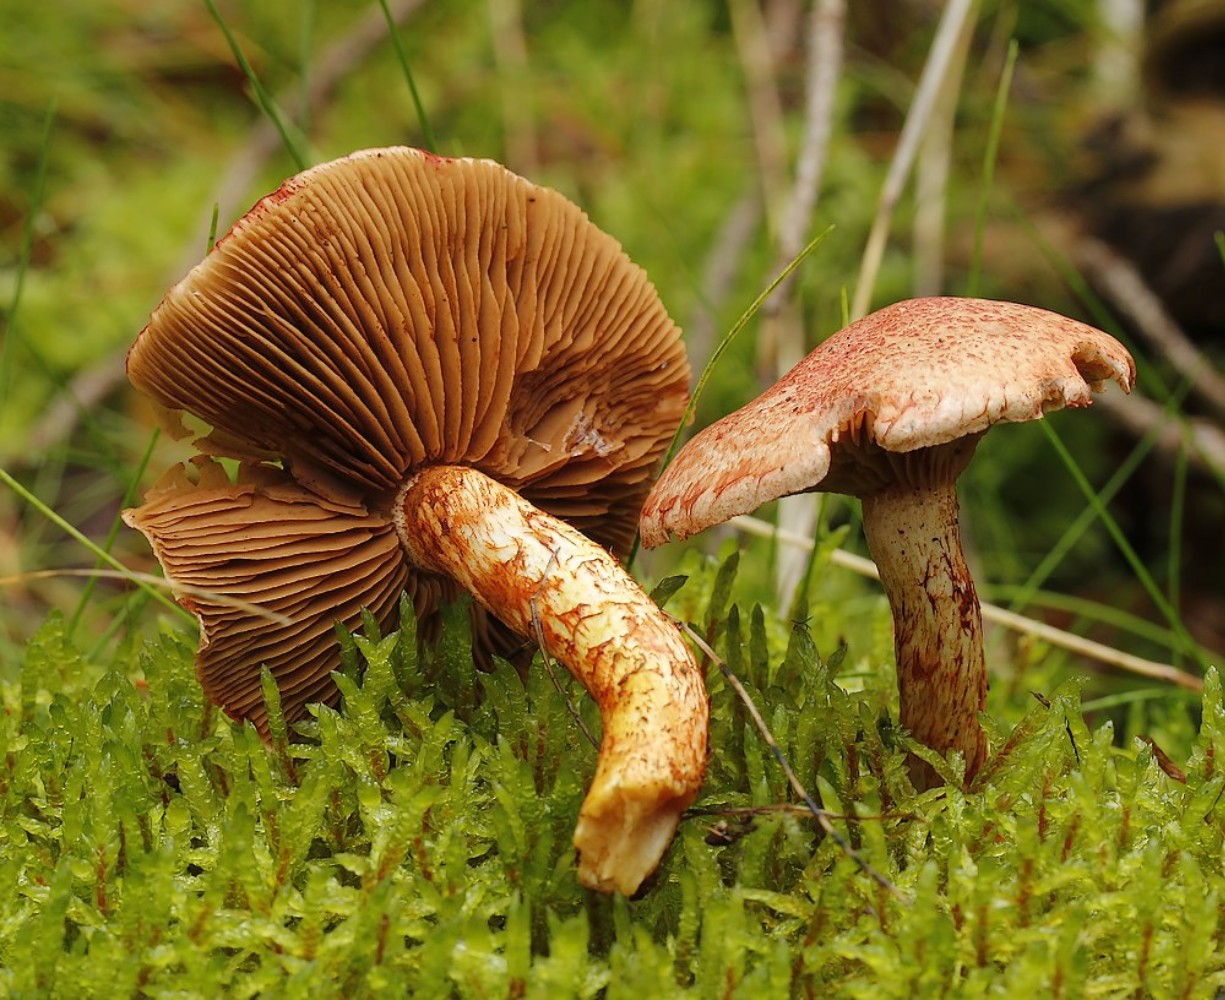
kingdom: Fungi
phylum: Basidiomycota
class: Agaricomycetes
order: Agaricales
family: Cortinariaceae
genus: Cortinarius
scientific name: Cortinarius bolaris
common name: cinnoberskællet slørhat
